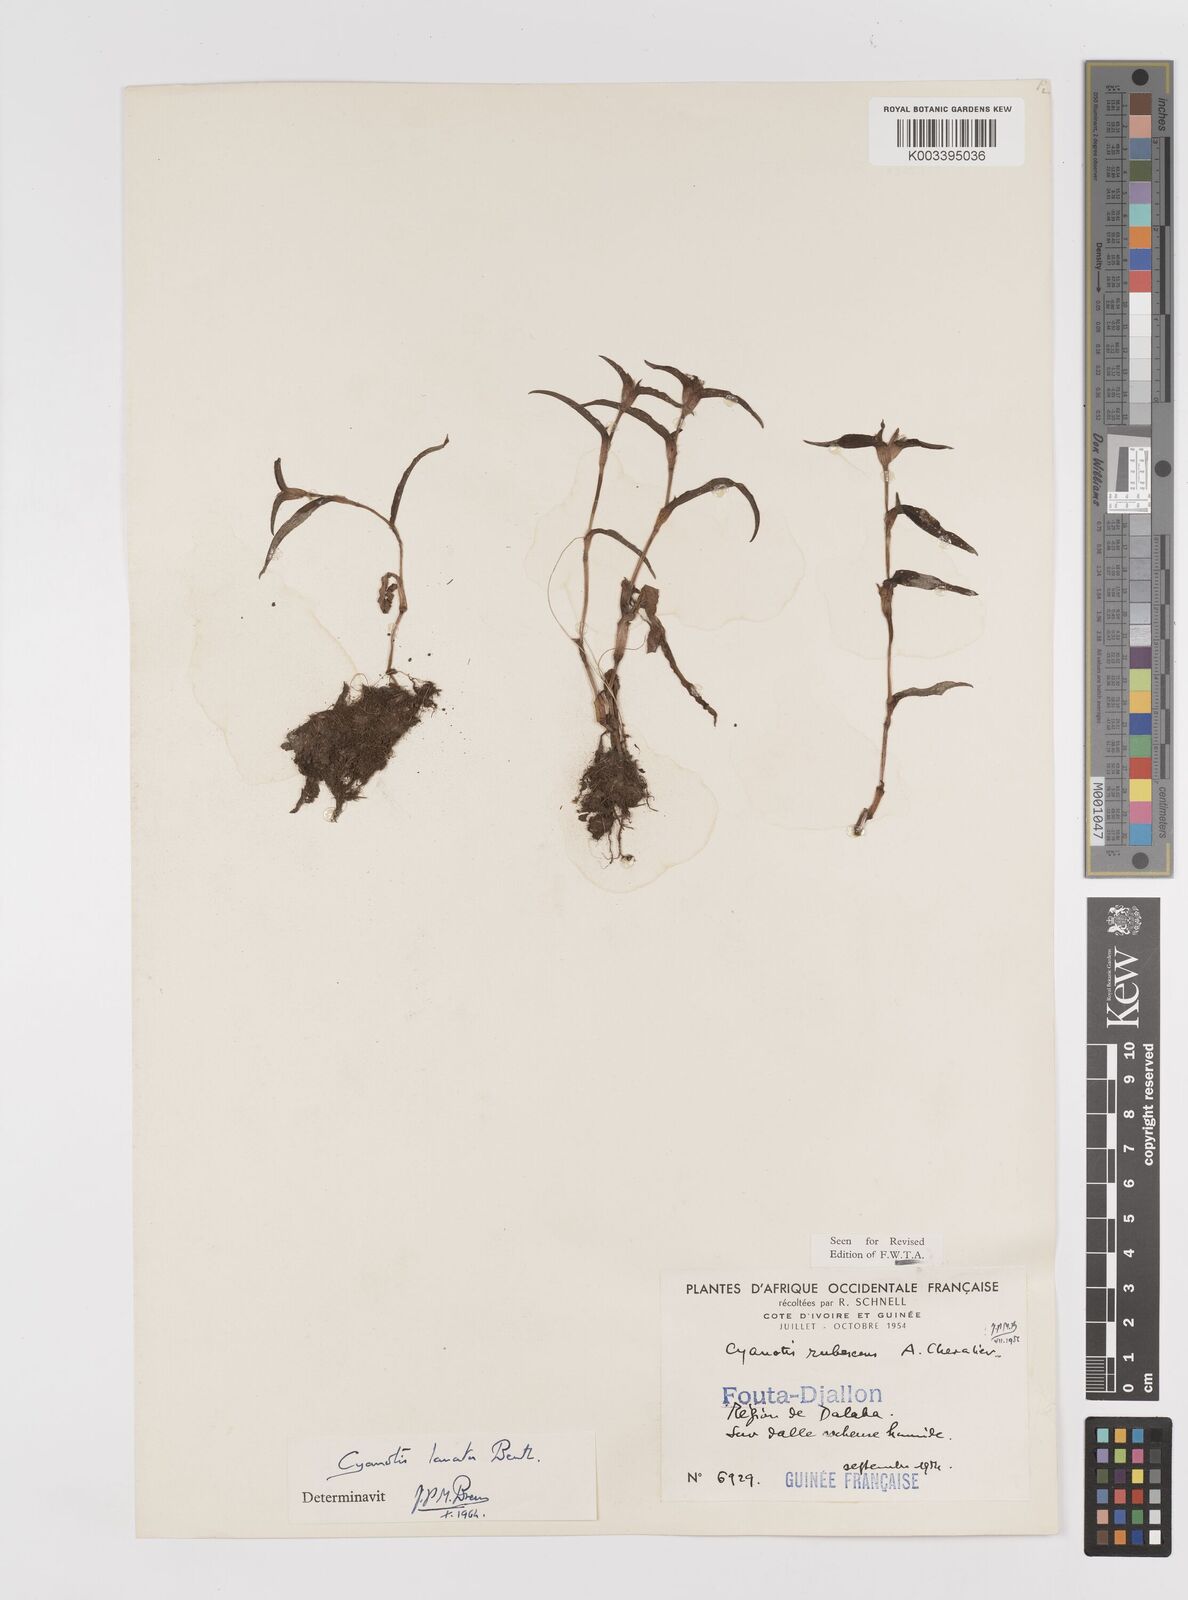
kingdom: Plantae
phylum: Tracheophyta
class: Liliopsida
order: Commelinales
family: Commelinaceae
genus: Cyanotis
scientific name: Cyanotis lanata
